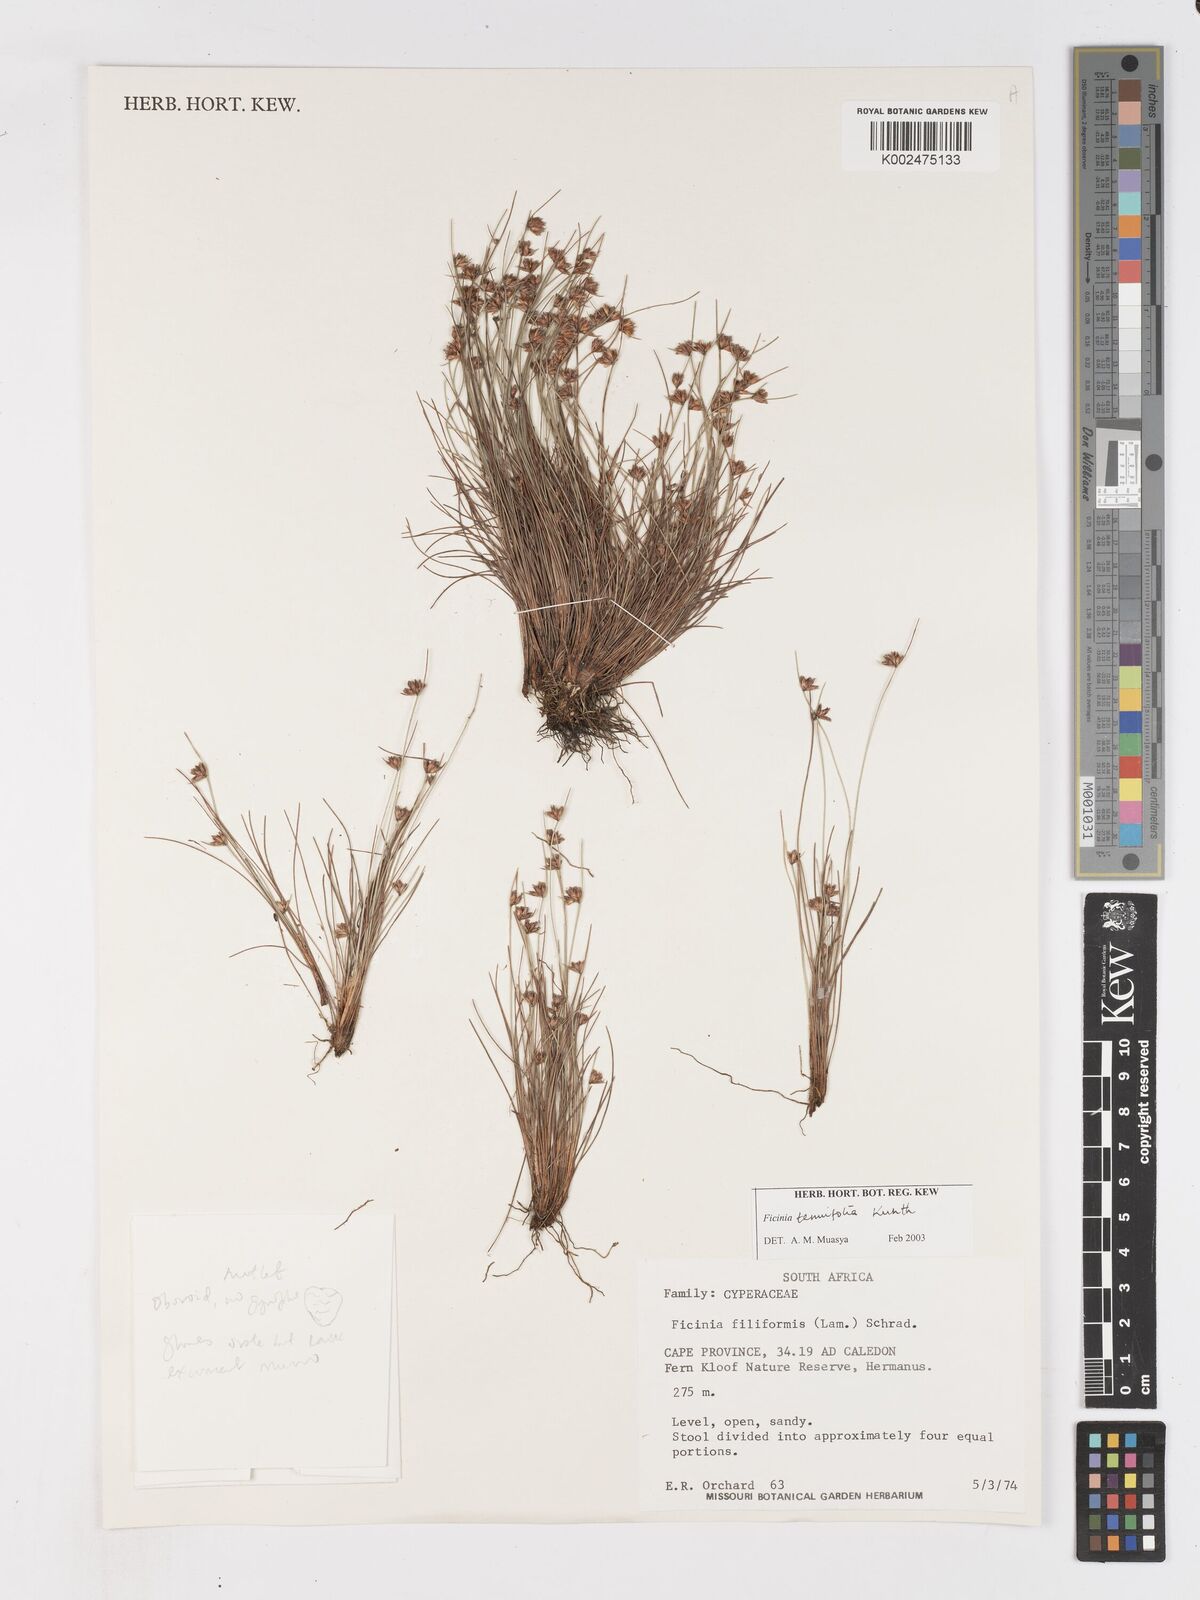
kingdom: Plantae
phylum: Tracheophyta
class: Liliopsida
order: Poales
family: Cyperaceae
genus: Ficinia
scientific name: Ficinia filiformis
